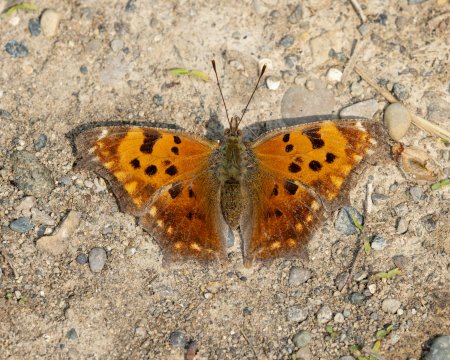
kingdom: Animalia
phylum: Arthropoda
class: Insecta
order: Lepidoptera
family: Nymphalidae
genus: Polygonia
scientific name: Polygonia comma
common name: Eastern Comma
